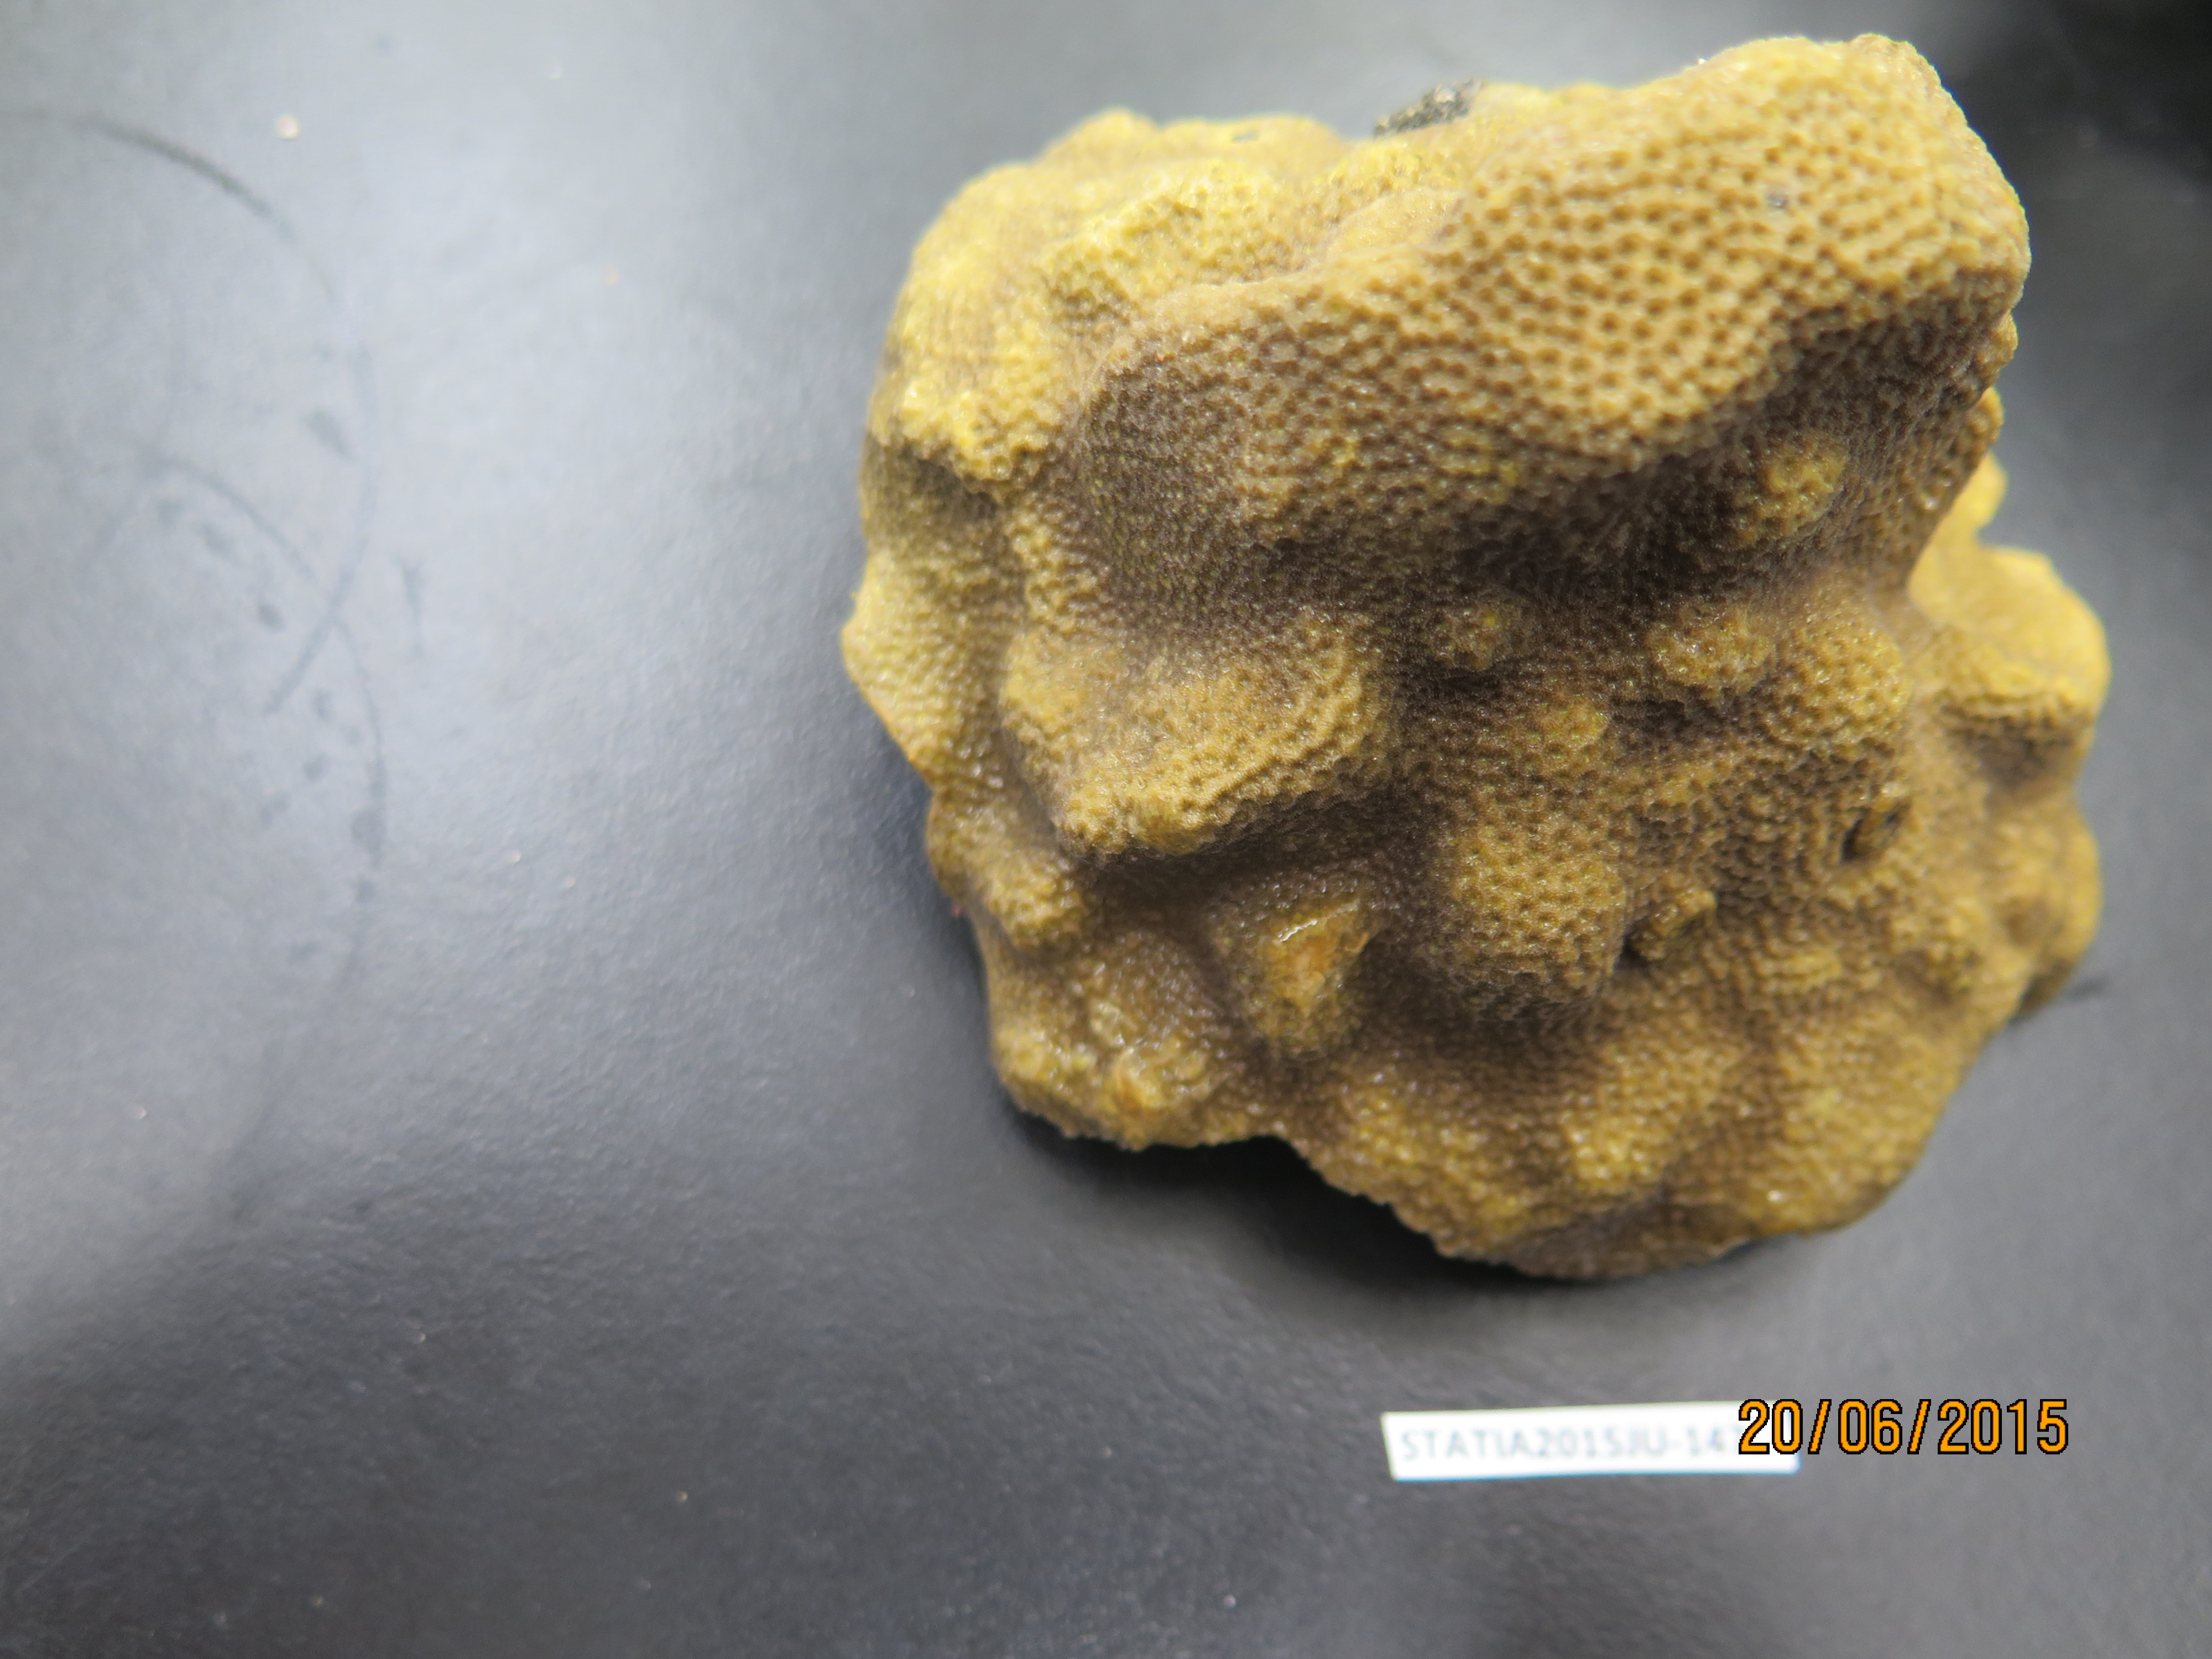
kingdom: Animalia
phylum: Cnidaria
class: Anthozoa
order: Scleractinia
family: Poritidae
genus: Porites
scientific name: Porites astreoides
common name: Mustard hill coral
